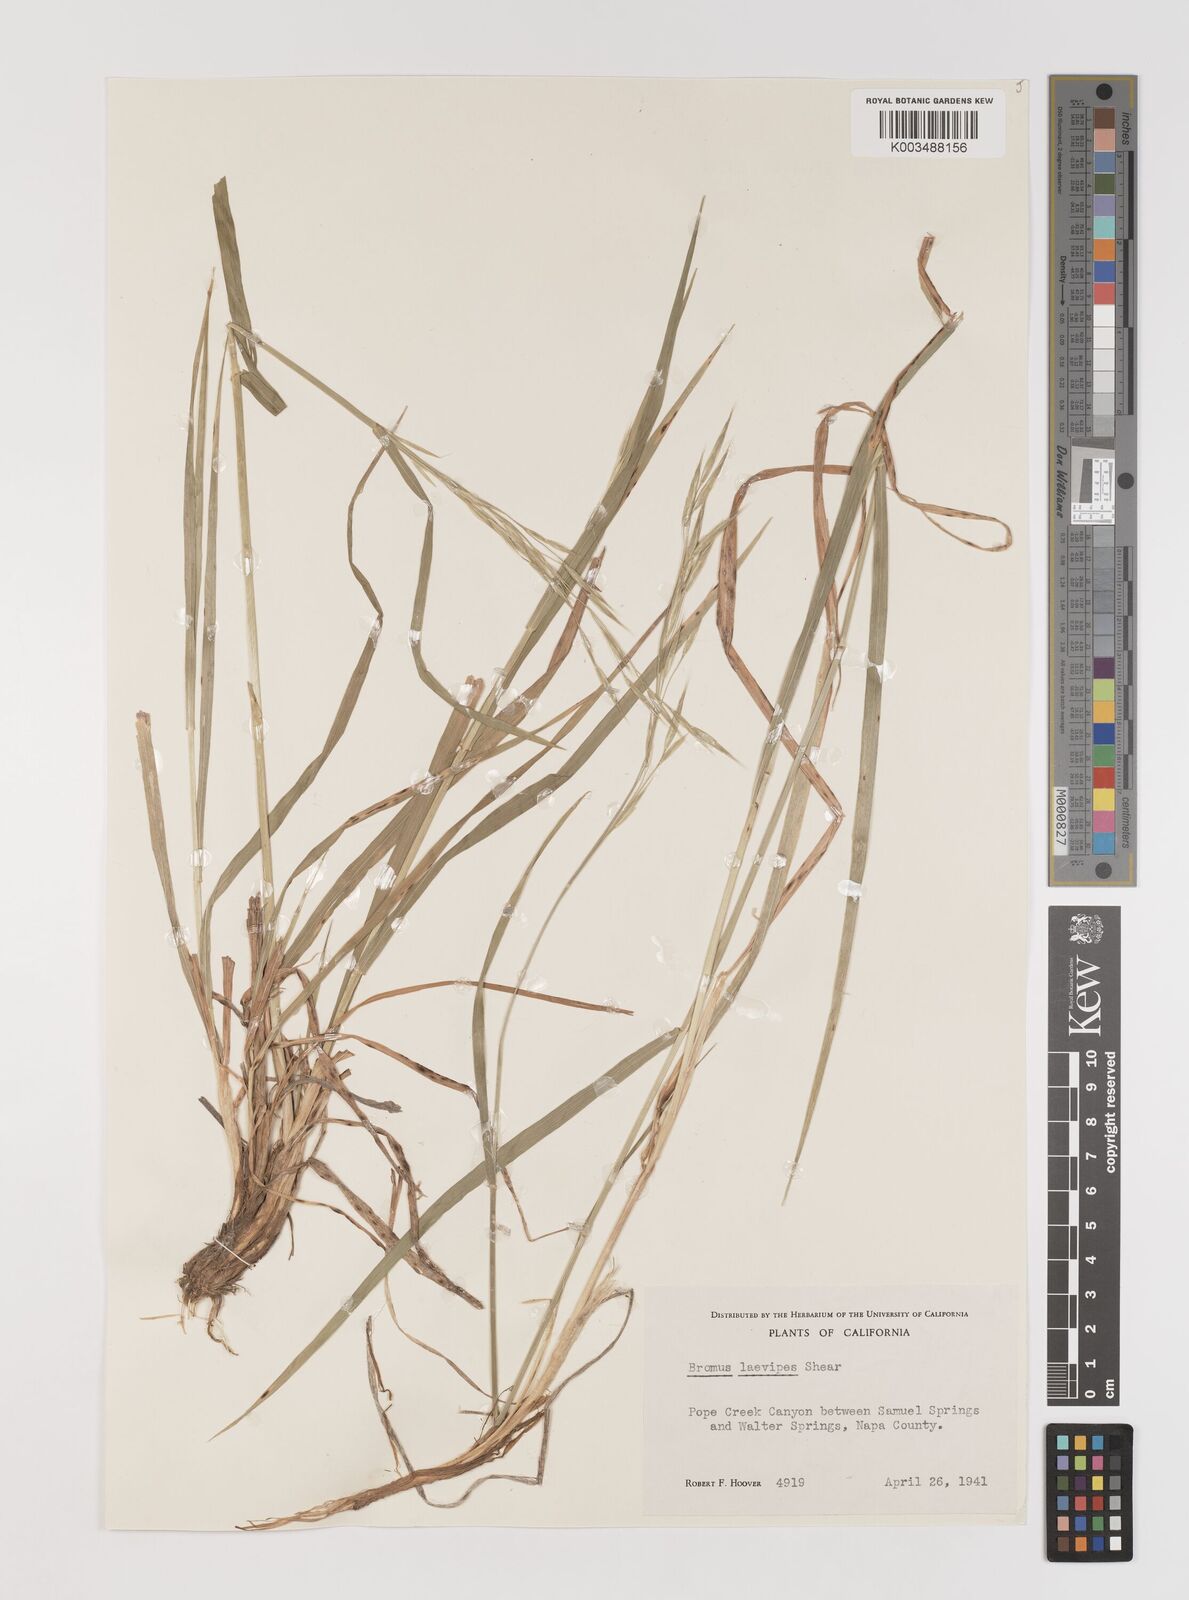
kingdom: Plantae
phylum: Tracheophyta
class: Liliopsida
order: Poales
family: Poaceae
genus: Bromus
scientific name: Bromus laevipes
